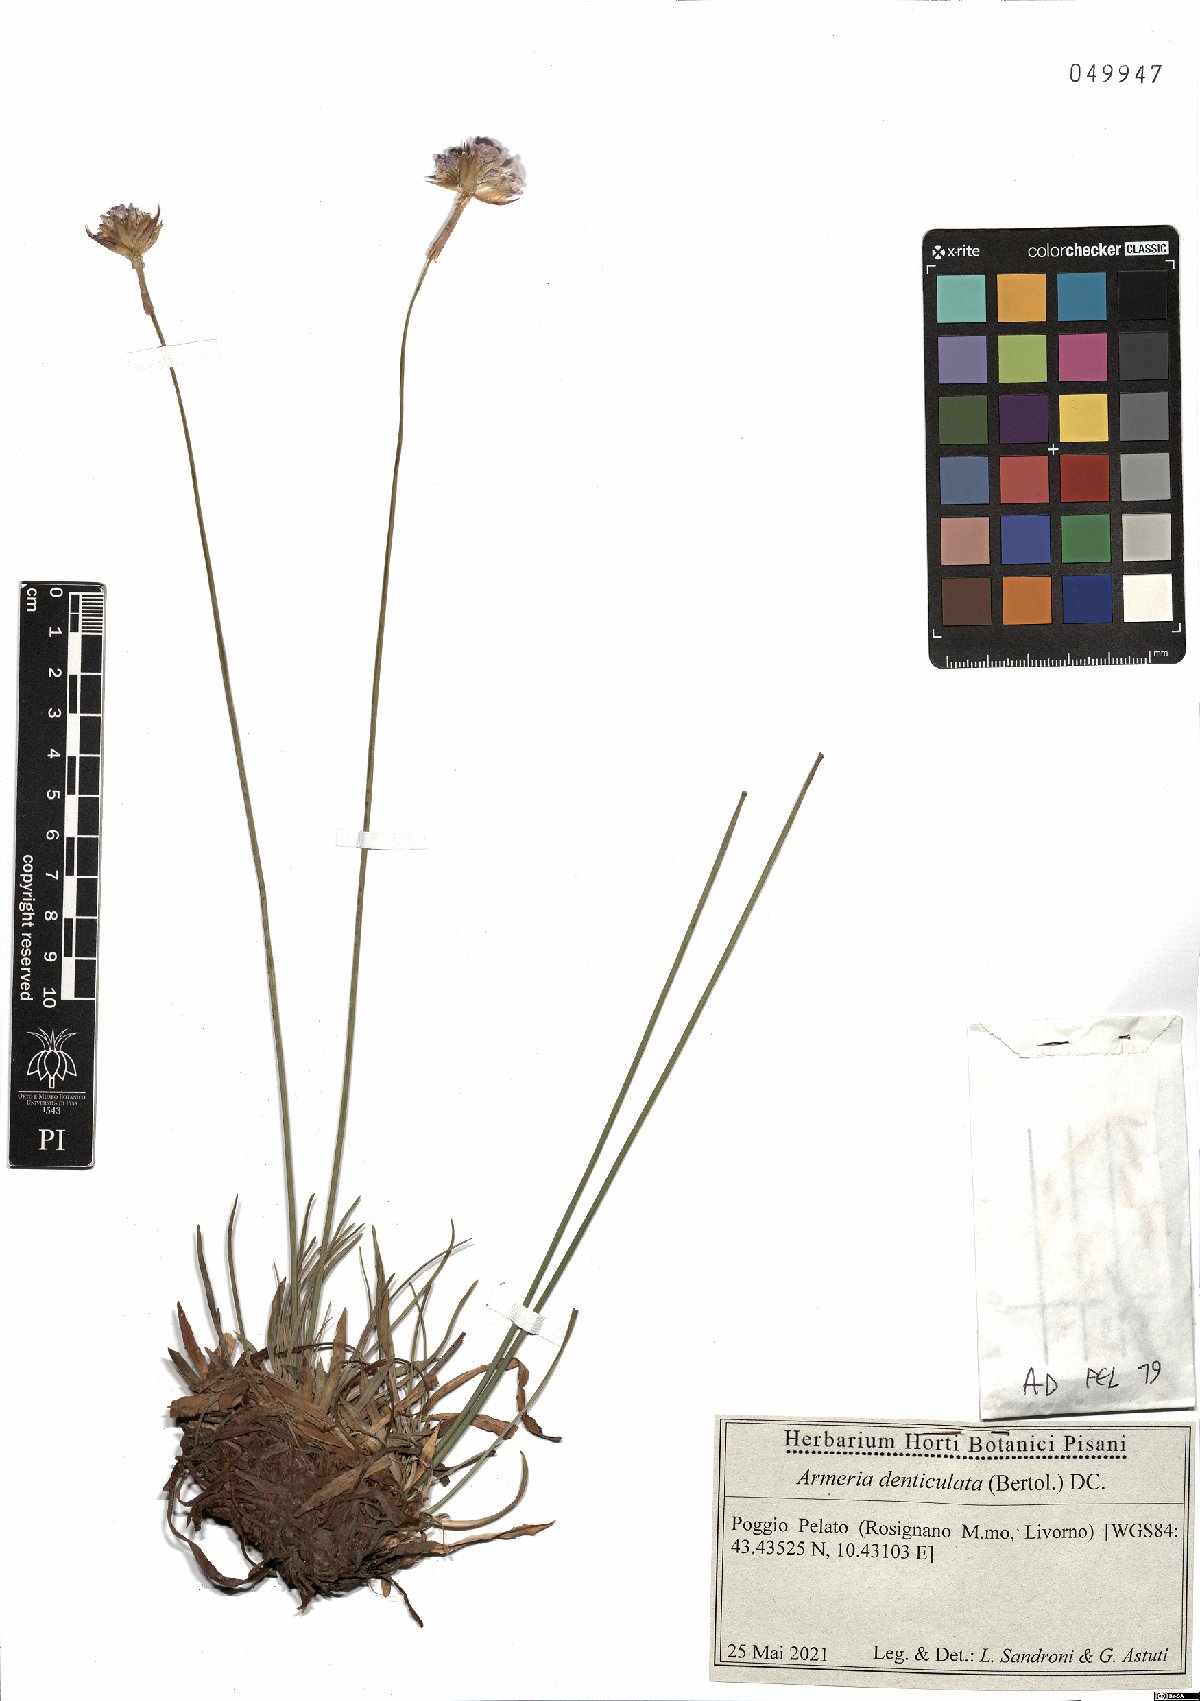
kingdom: Plantae
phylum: Tracheophyta
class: Magnoliopsida
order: Caryophyllales
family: Plumbaginaceae
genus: Armeria
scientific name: Armeria denticulata
